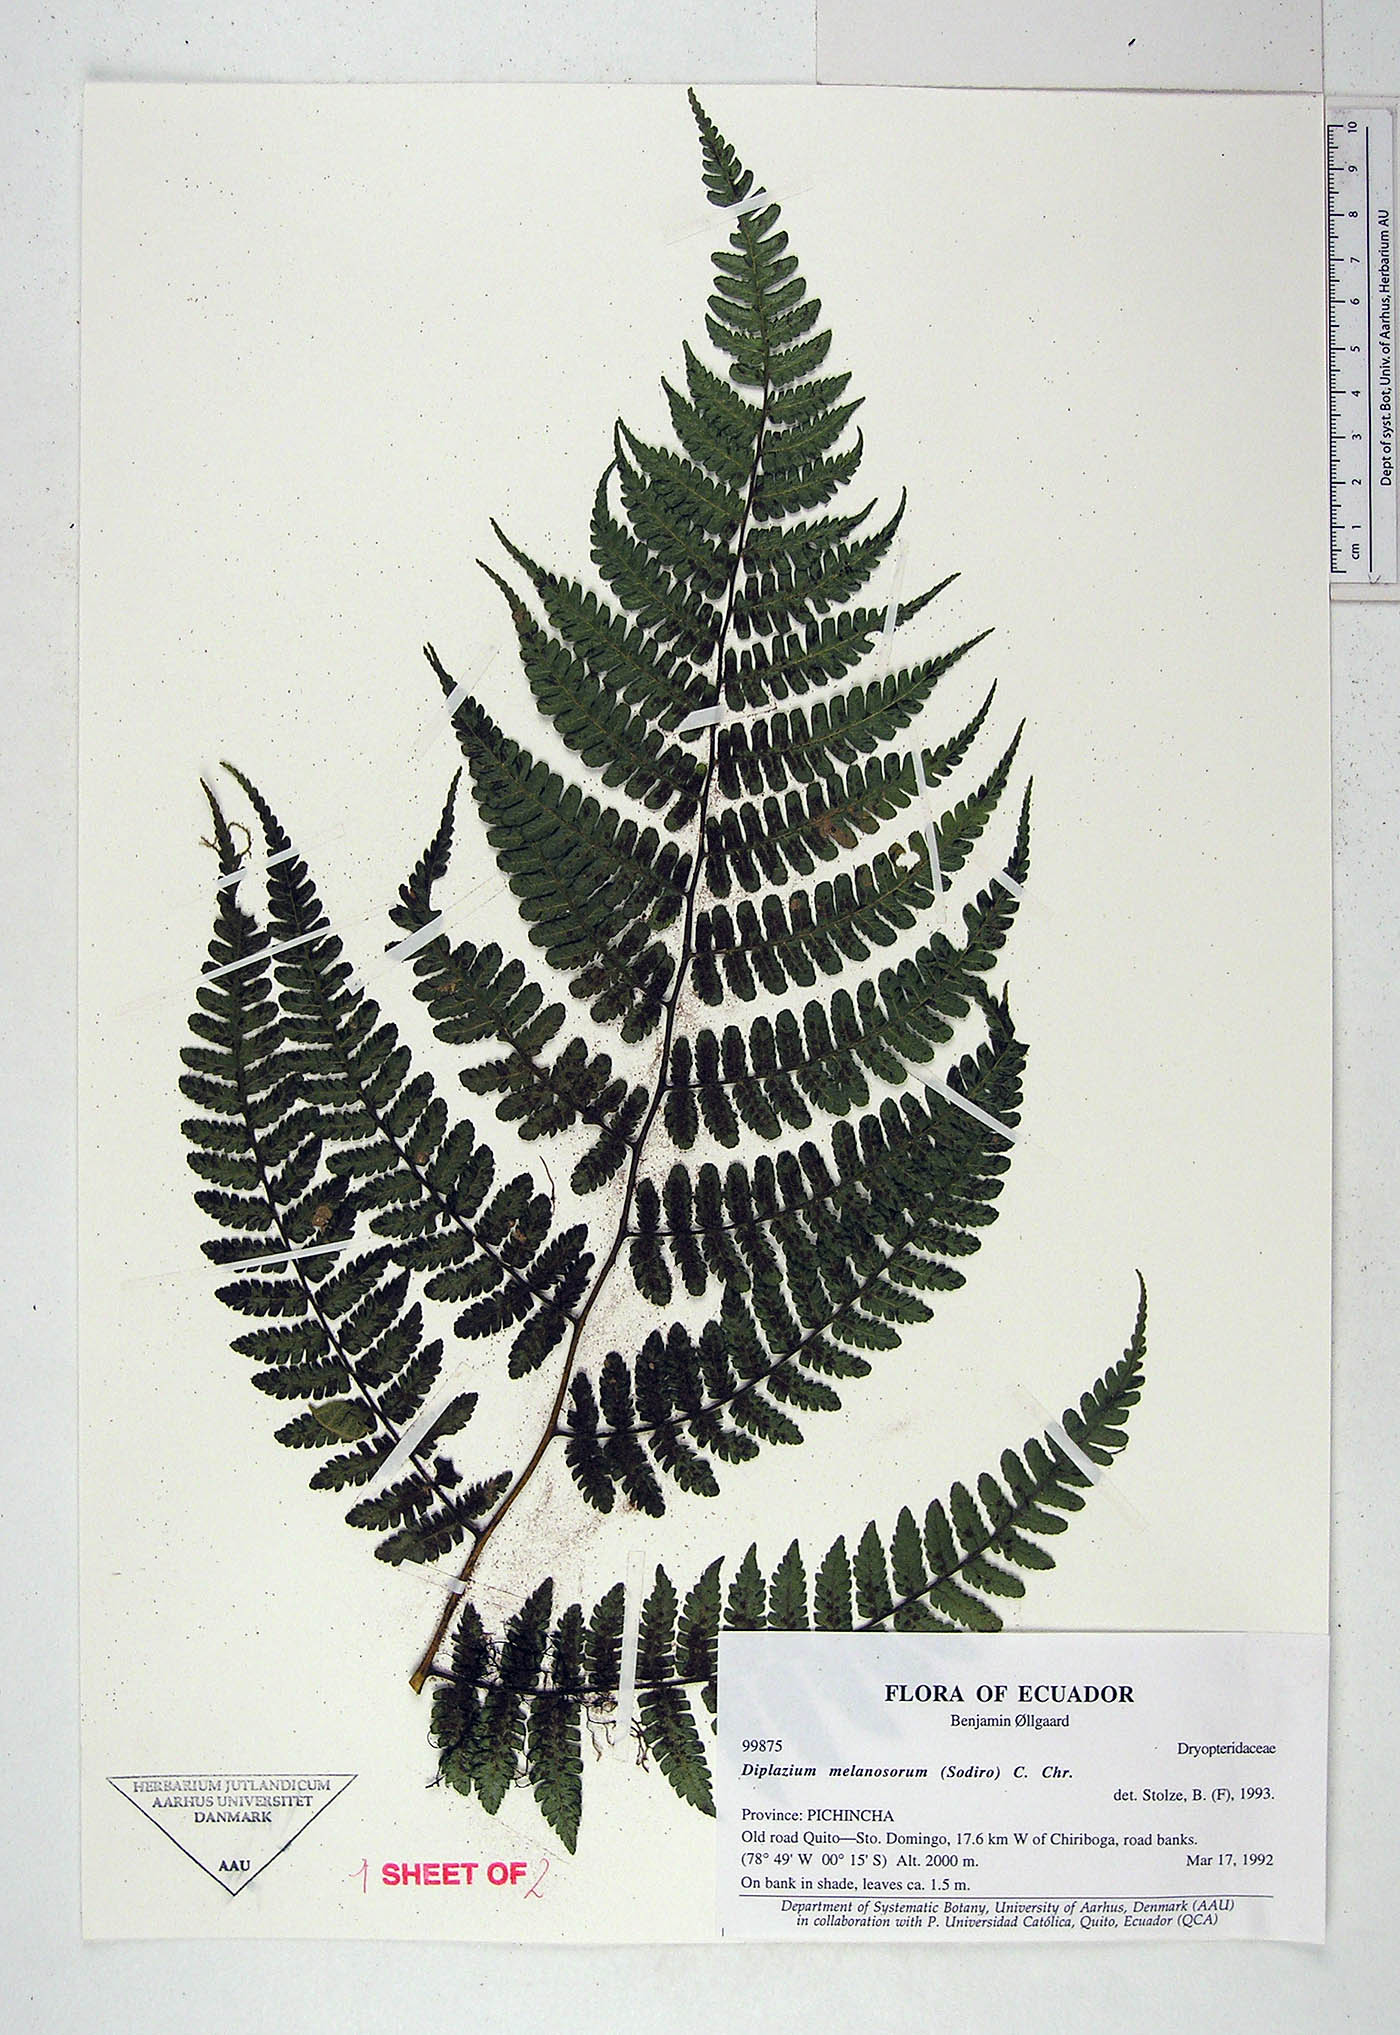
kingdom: Plantae
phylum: Tracheophyta
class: Polypodiopsida
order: Polypodiales
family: Athyriaceae
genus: Diplazium
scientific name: Diplazium melanosorum
